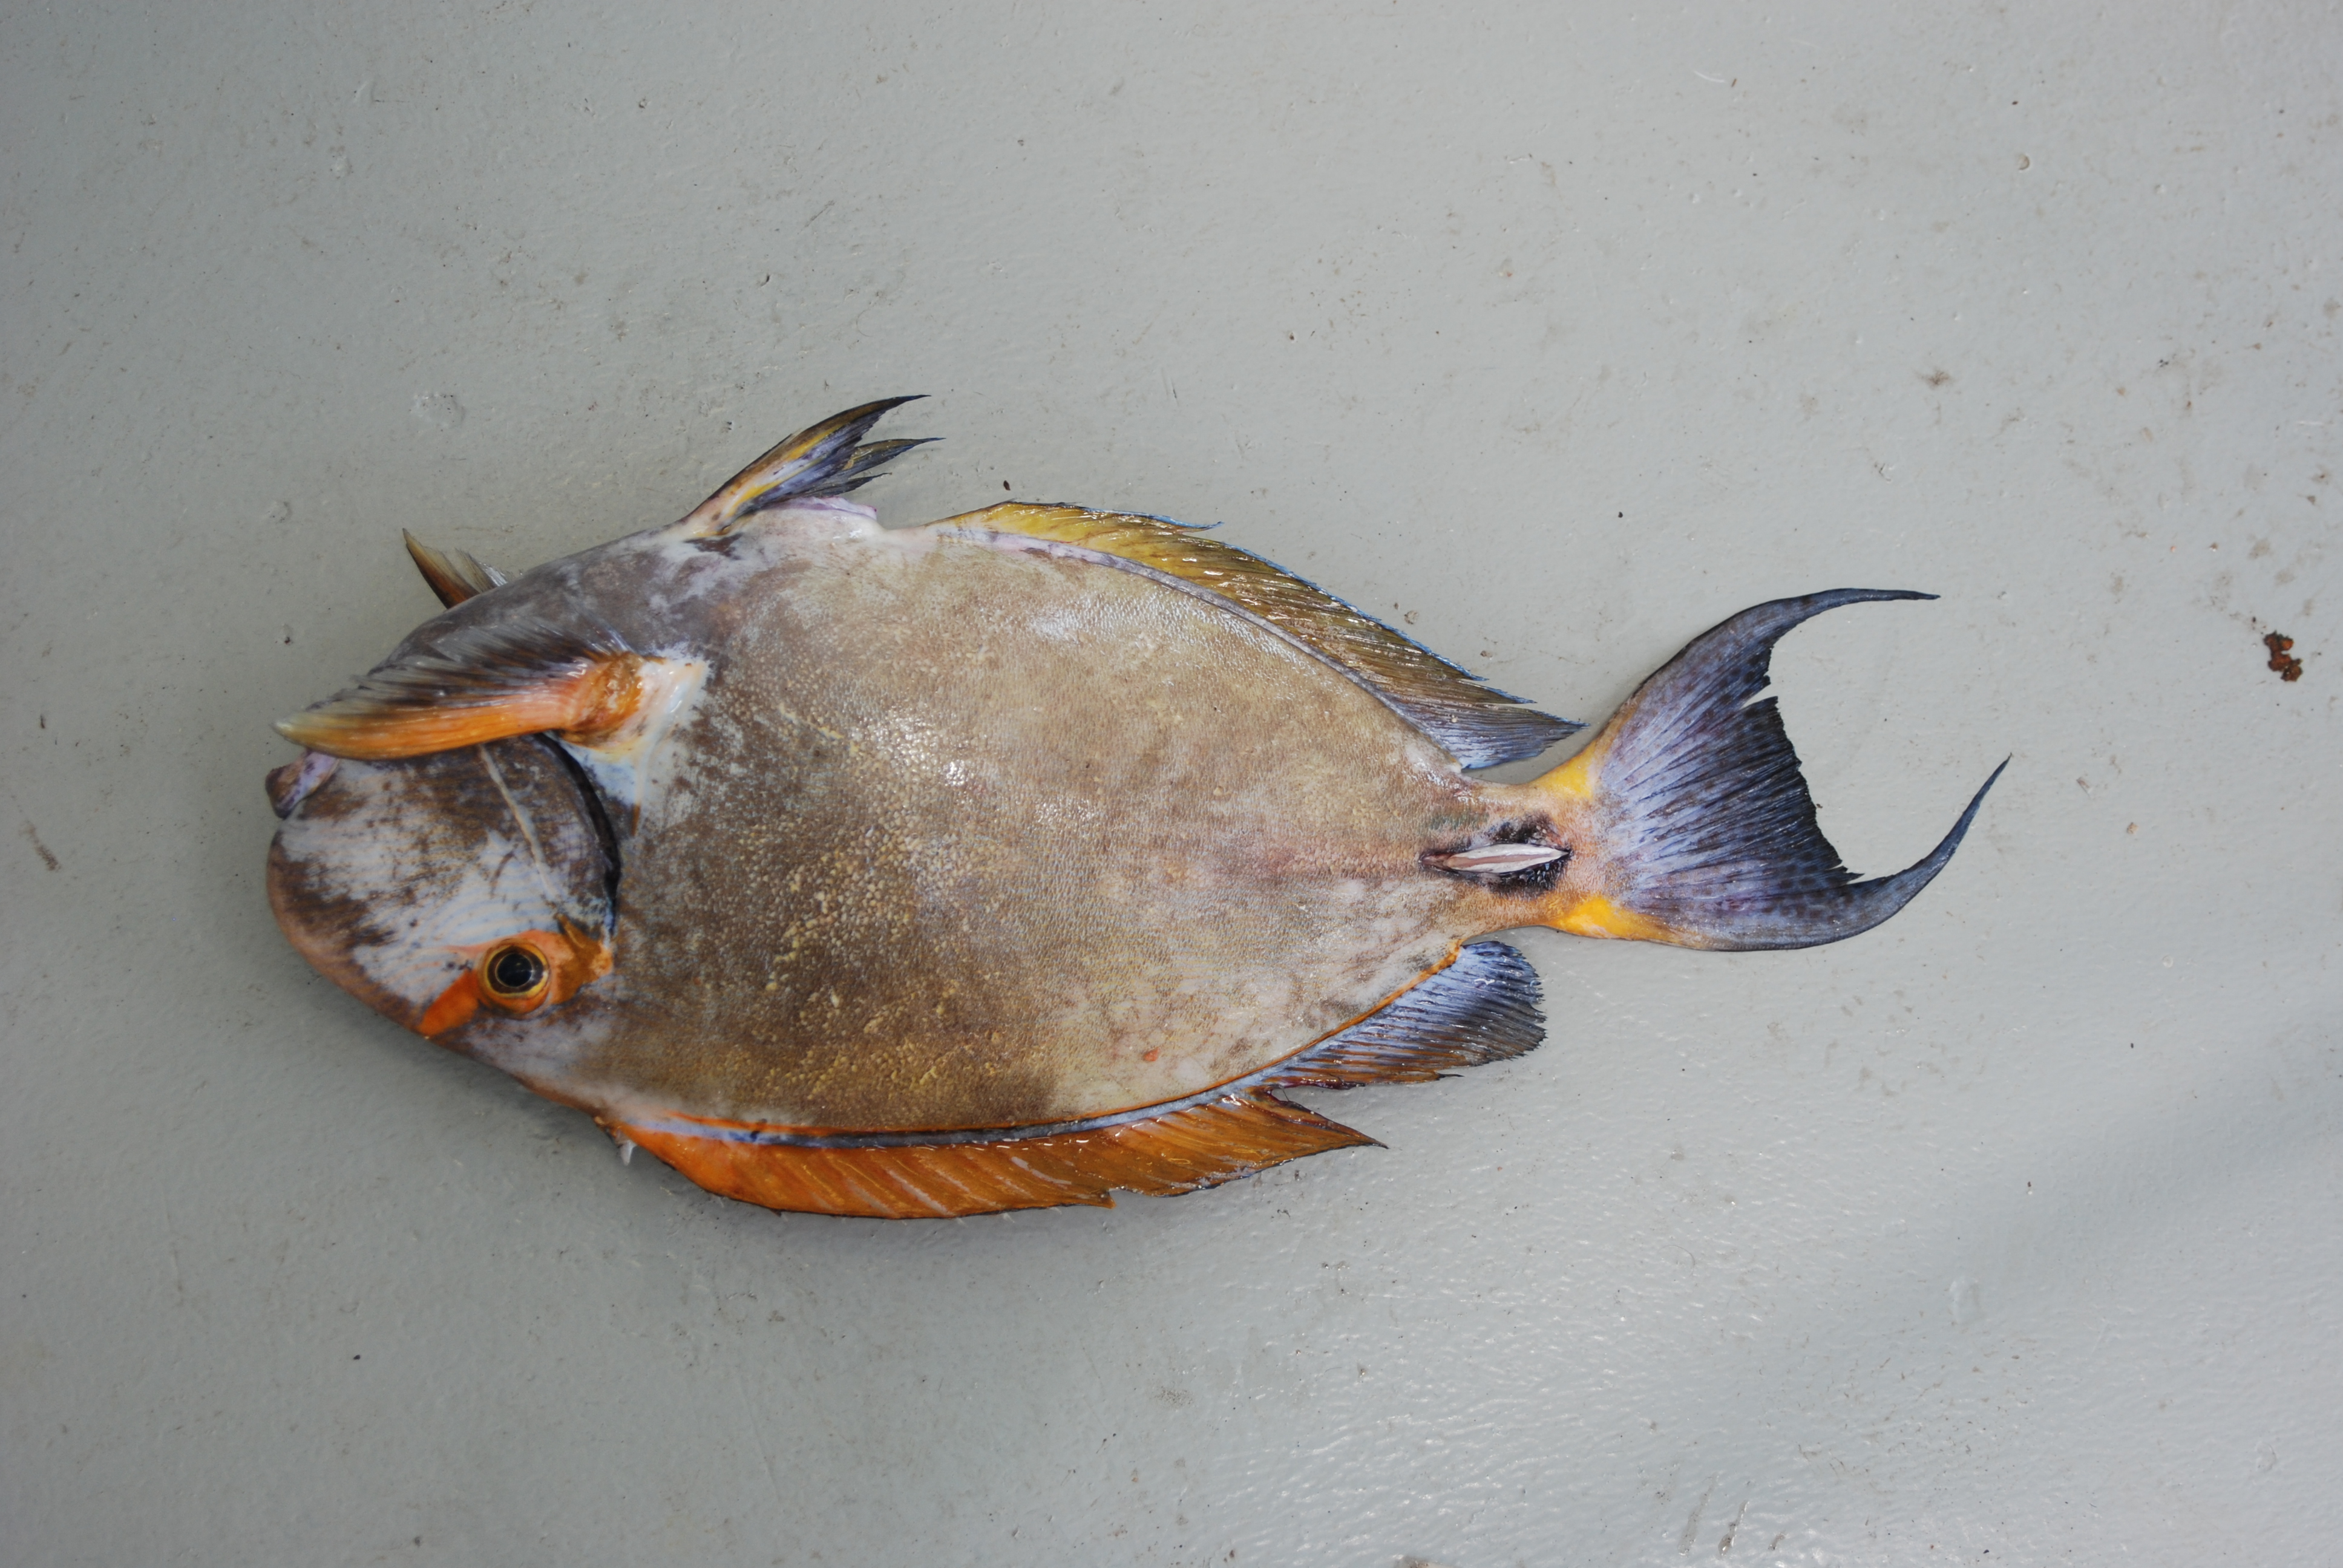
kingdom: Animalia
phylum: Chordata
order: Perciformes
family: Acanthuridae
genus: Acanthurus
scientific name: Acanthurus dussumieri
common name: Dussumier's surgeonfish
